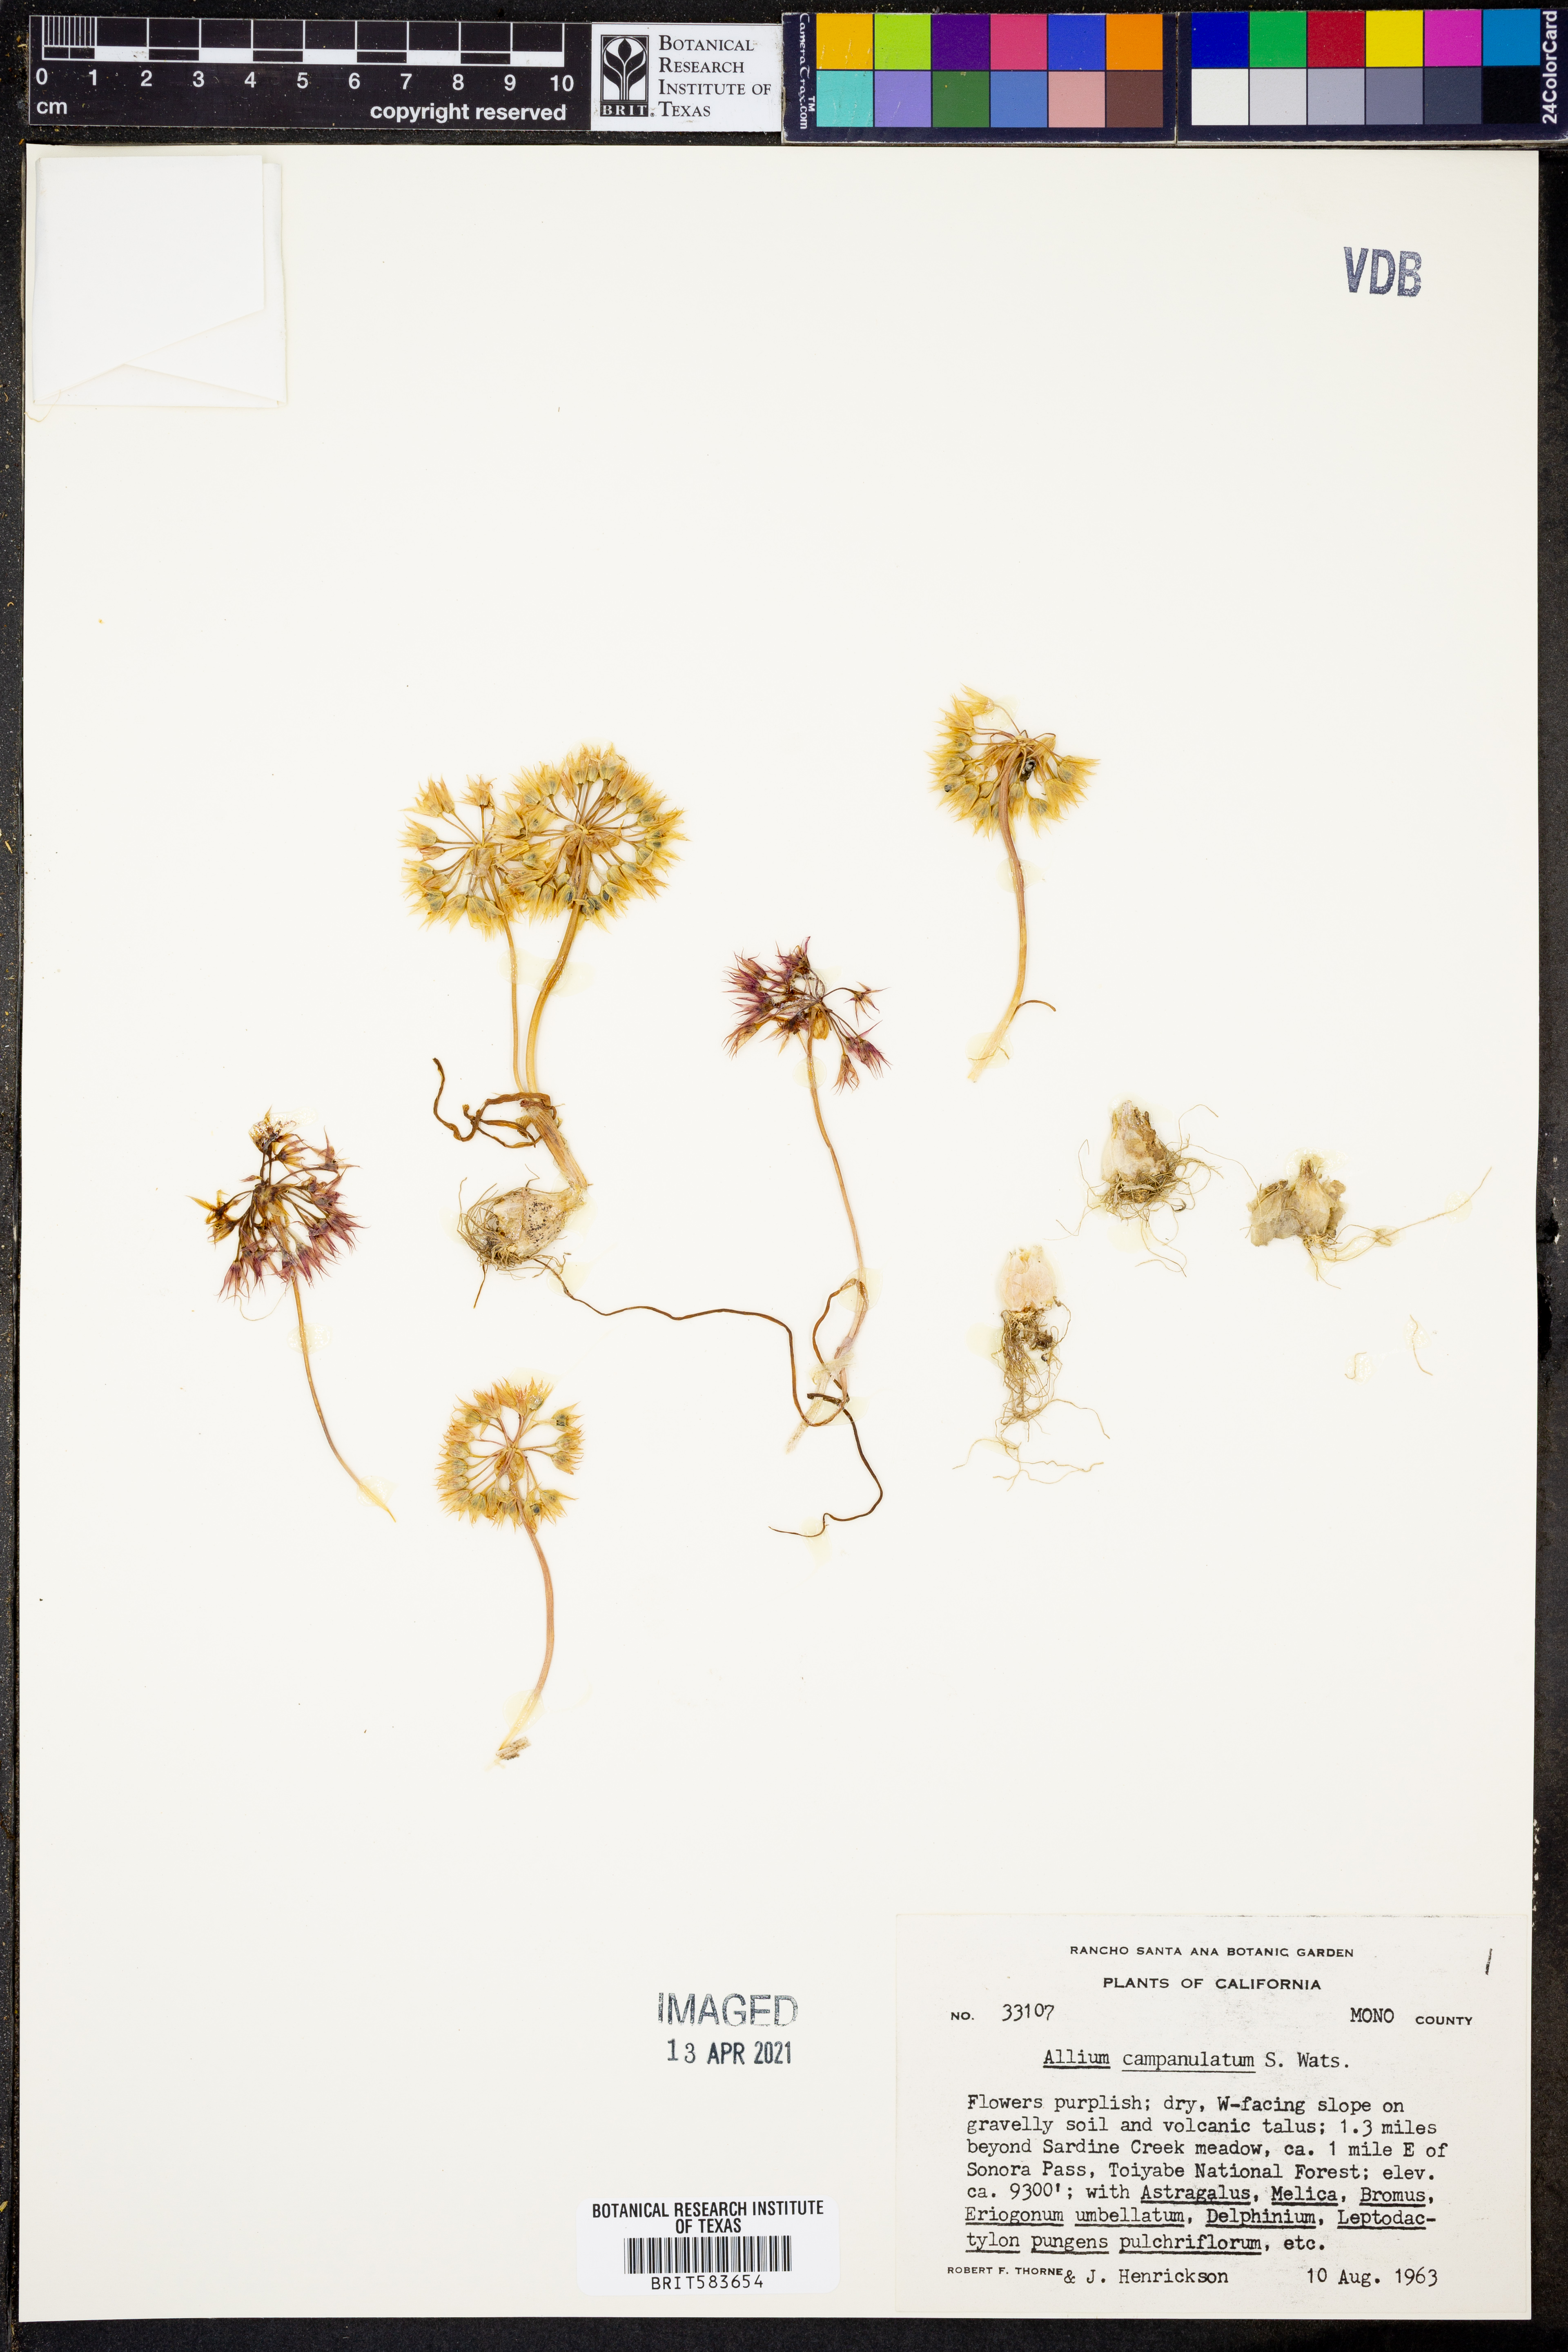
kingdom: Plantae
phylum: Tracheophyta
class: Liliopsida
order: Asparagales
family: Amaryllidaceae
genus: Allium
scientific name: Allium campanulatum
